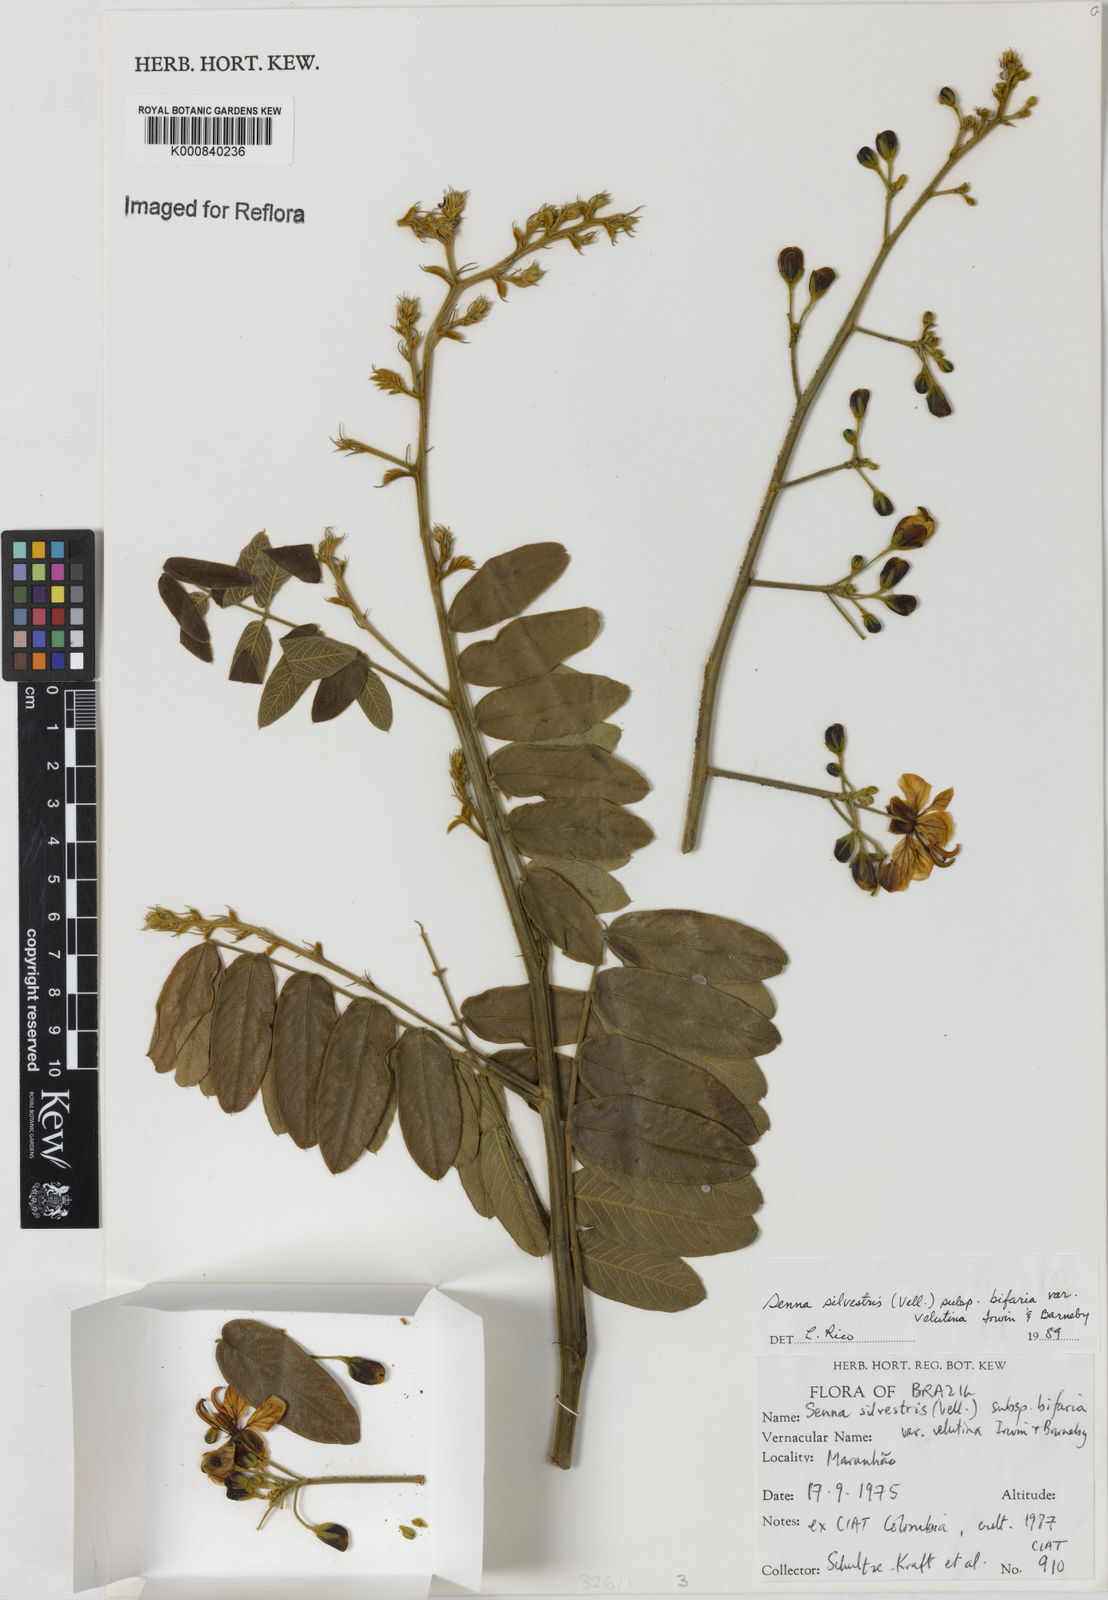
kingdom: Plantae
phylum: Tracheophyta
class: Magnoliopsida
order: Fabales
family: Fabaceae
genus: Senna
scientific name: Senna silvestris
